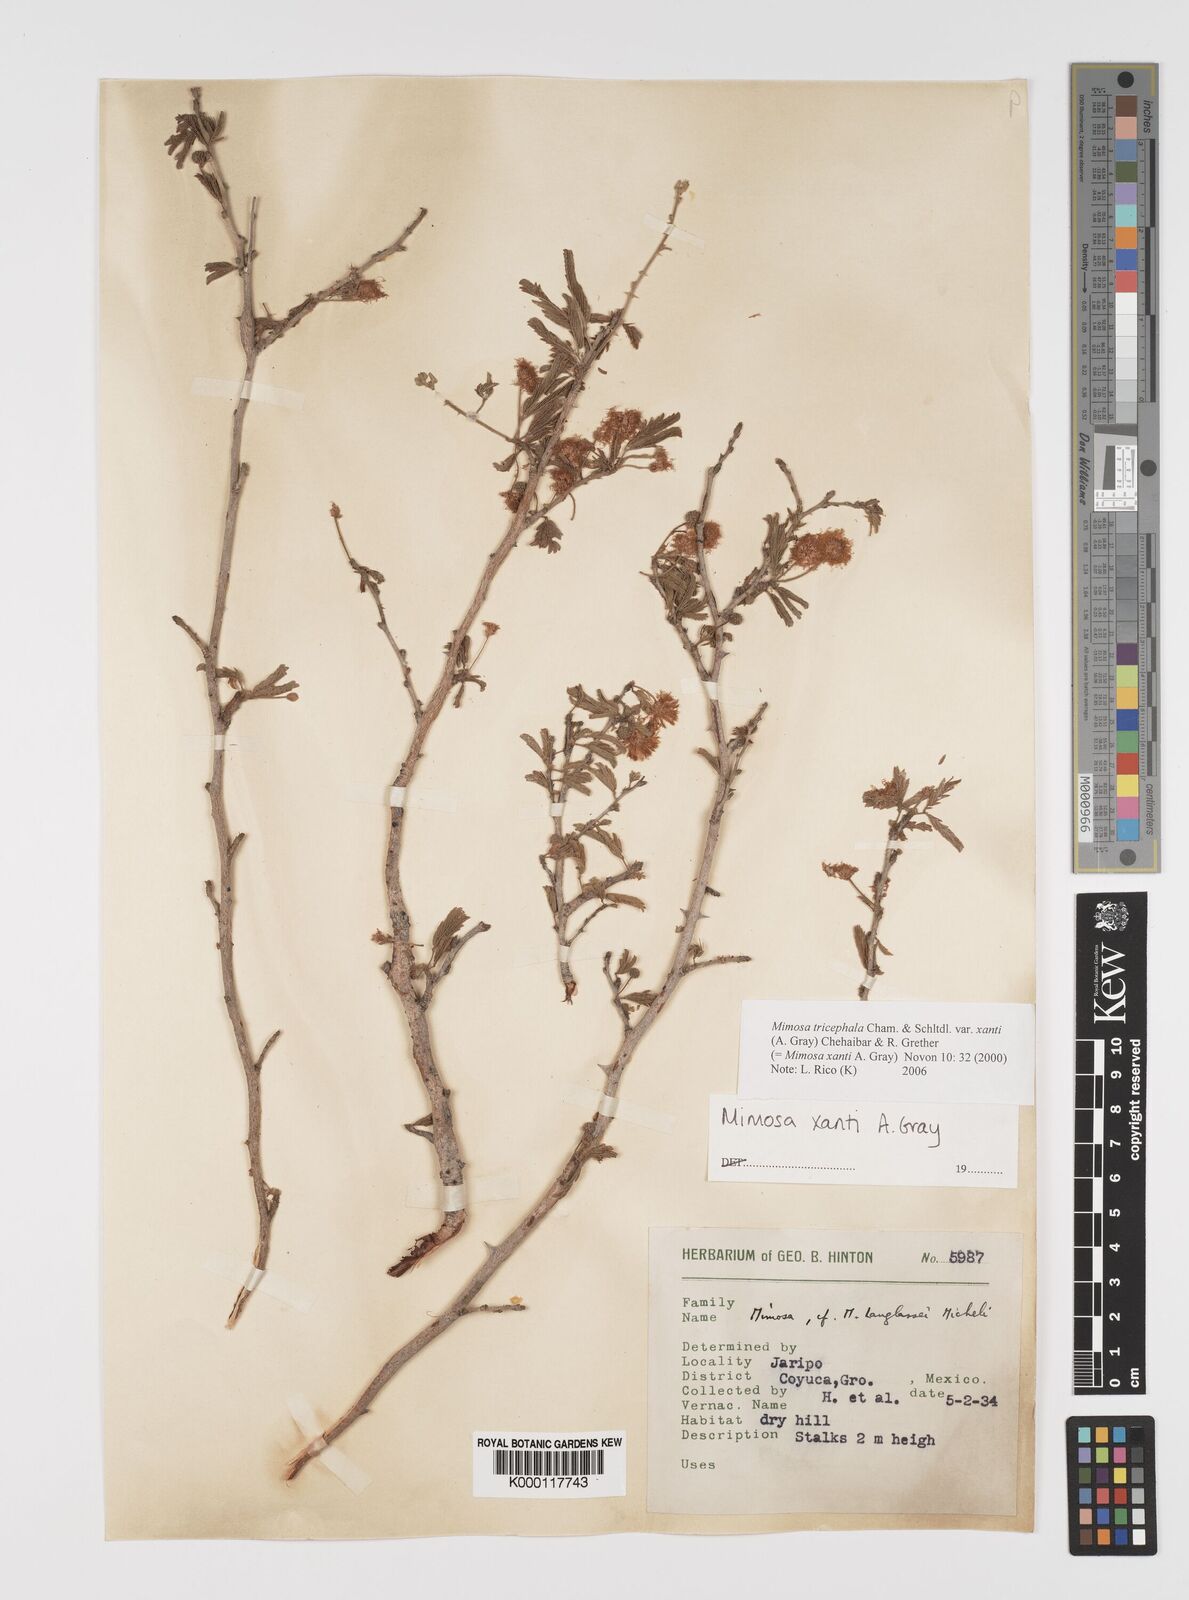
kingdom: Plantae
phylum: Tracheophyta
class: Magnoliopsida
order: Fabales
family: Fabaceae
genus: Mimosa
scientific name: Mimosa tricephala
